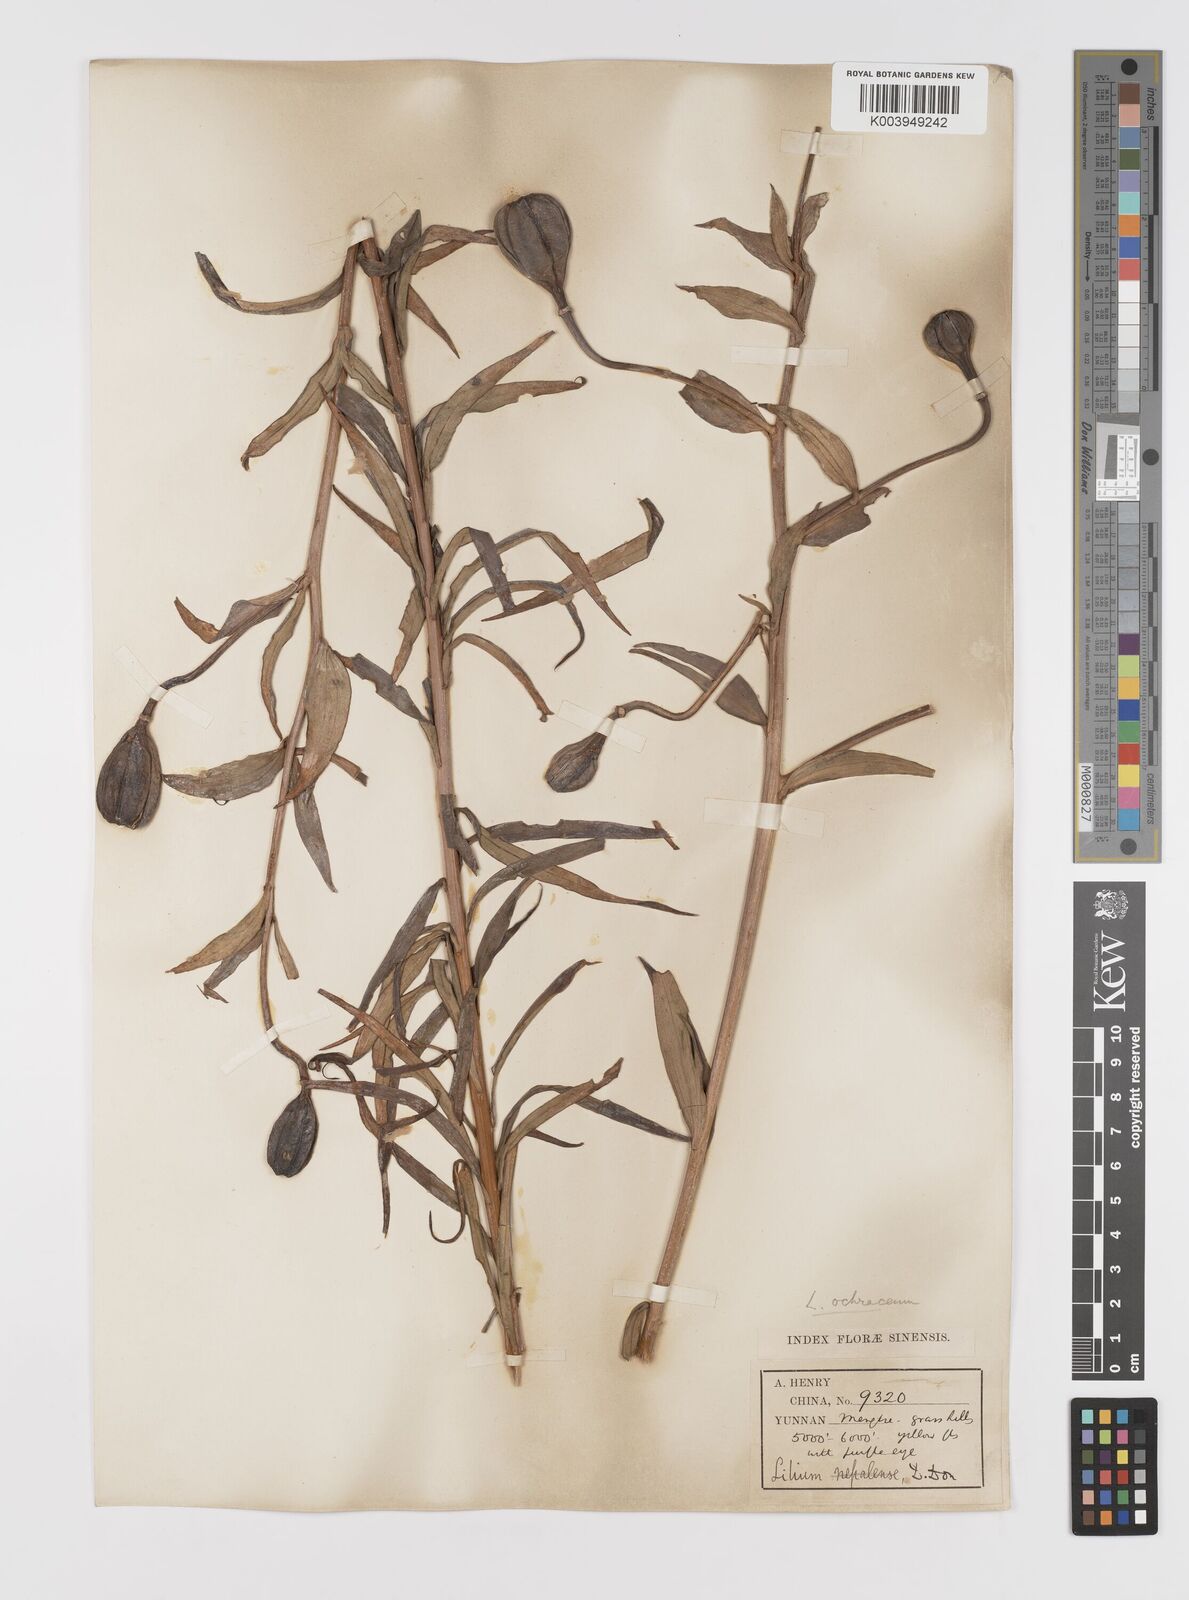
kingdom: Plantae
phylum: Tracheophyta
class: Liliopsida
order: Liliales
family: Liliaceae
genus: Lilium
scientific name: Lilium primulinum
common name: Ochre lily
